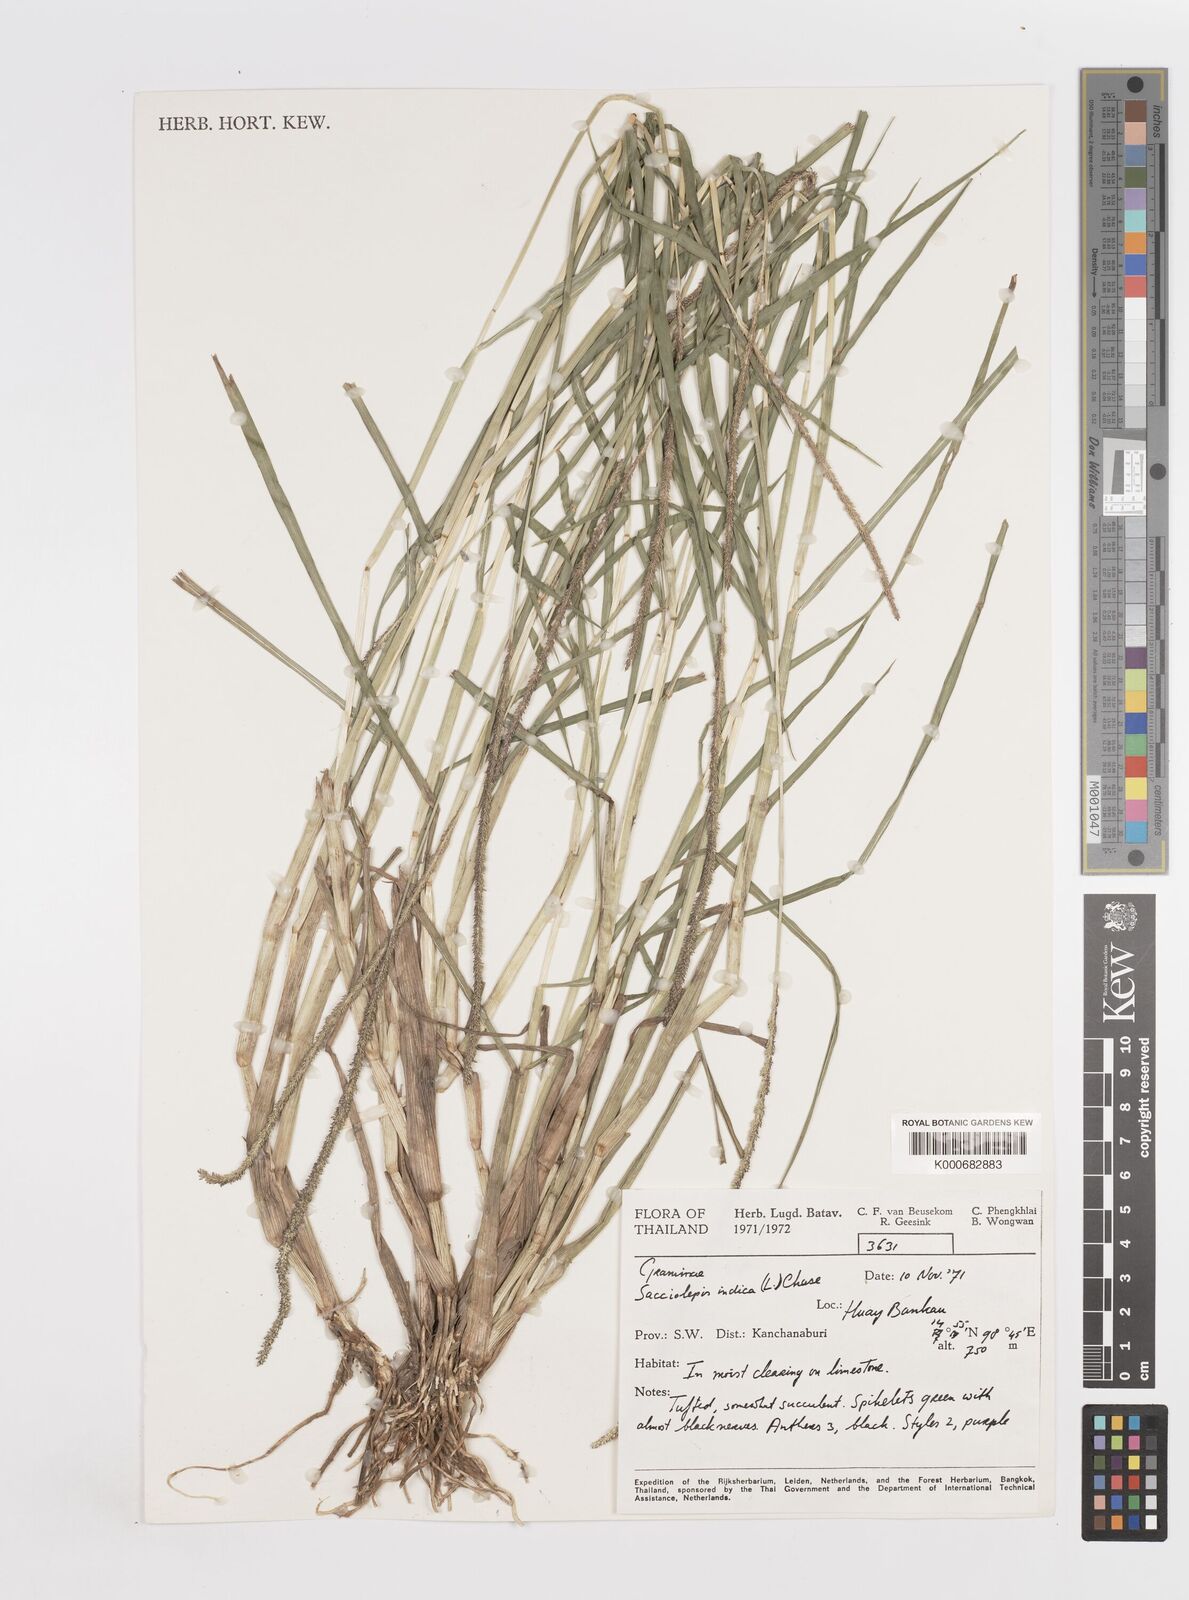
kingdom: Plantae
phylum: Tracheophyta
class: Liliopsida
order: Poales
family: Poaceae
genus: Sacciolepis
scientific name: Sacciolepis myosuroides
